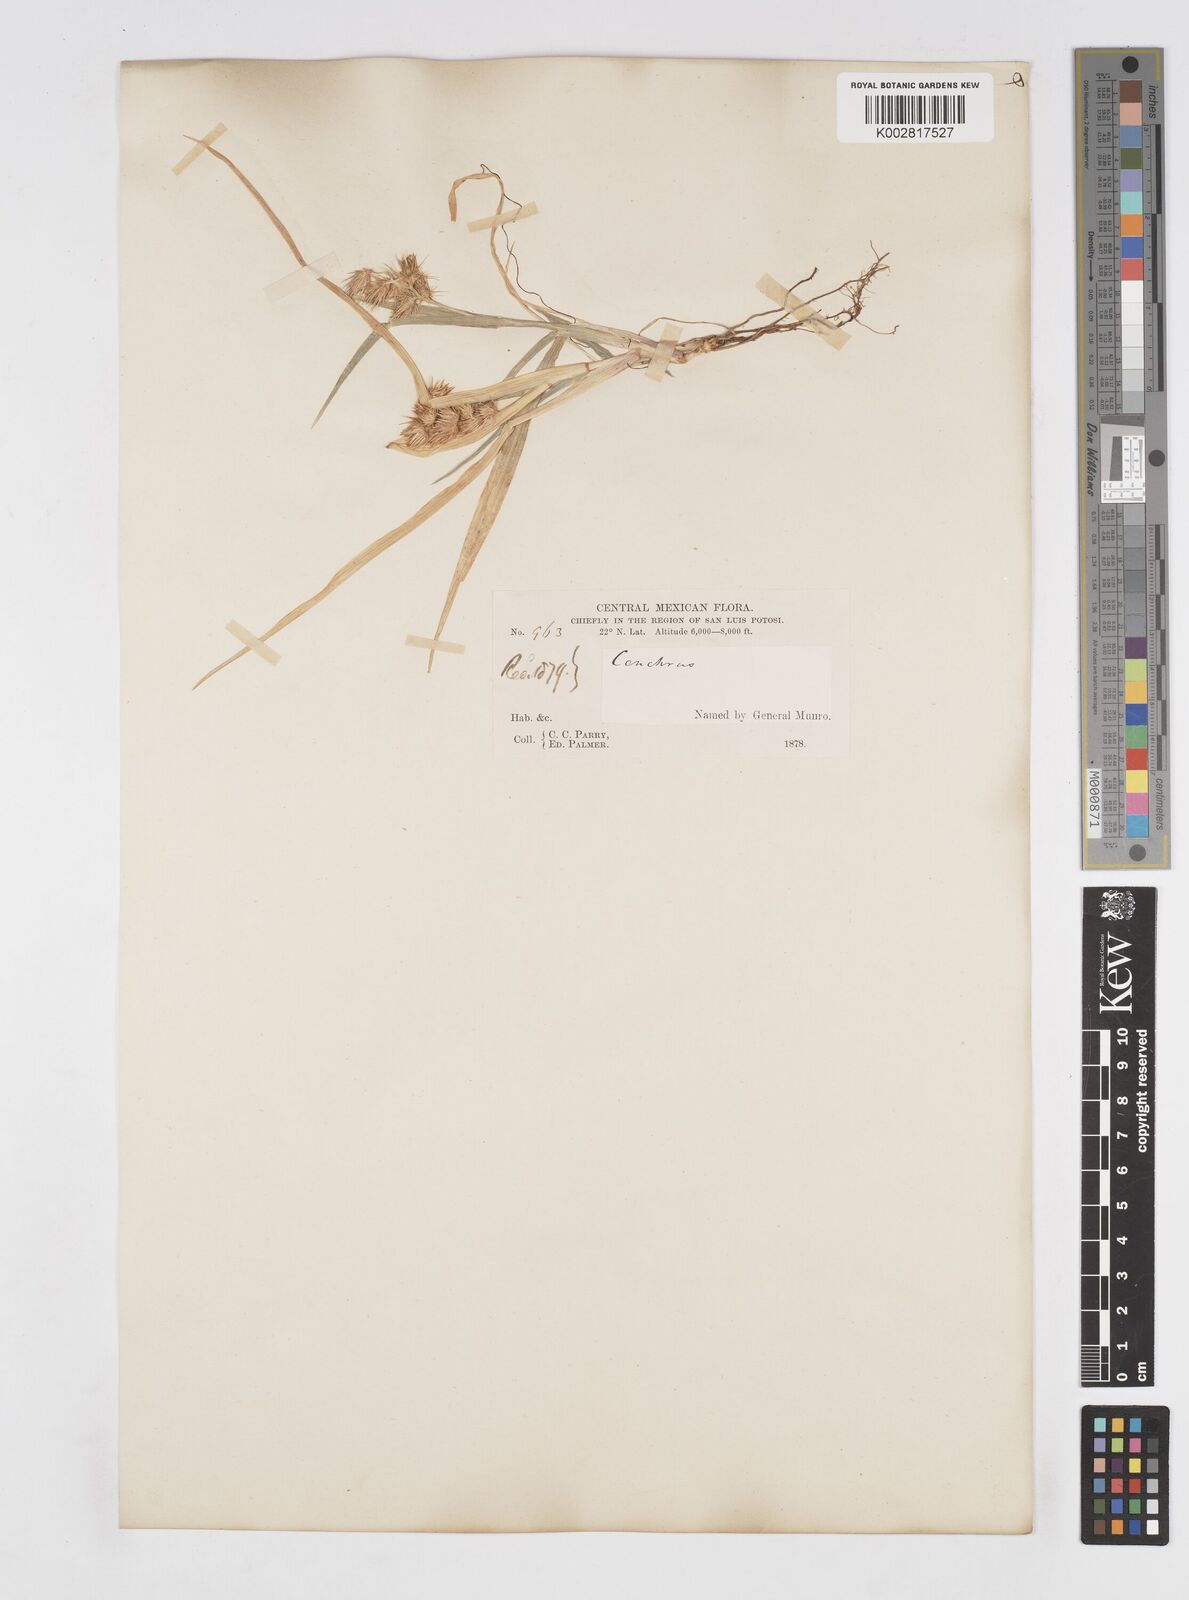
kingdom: Plantae
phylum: Tracheophyta
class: Liliopsida
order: Poales
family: Poaceae
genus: Cenchrus
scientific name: Cenchrus
